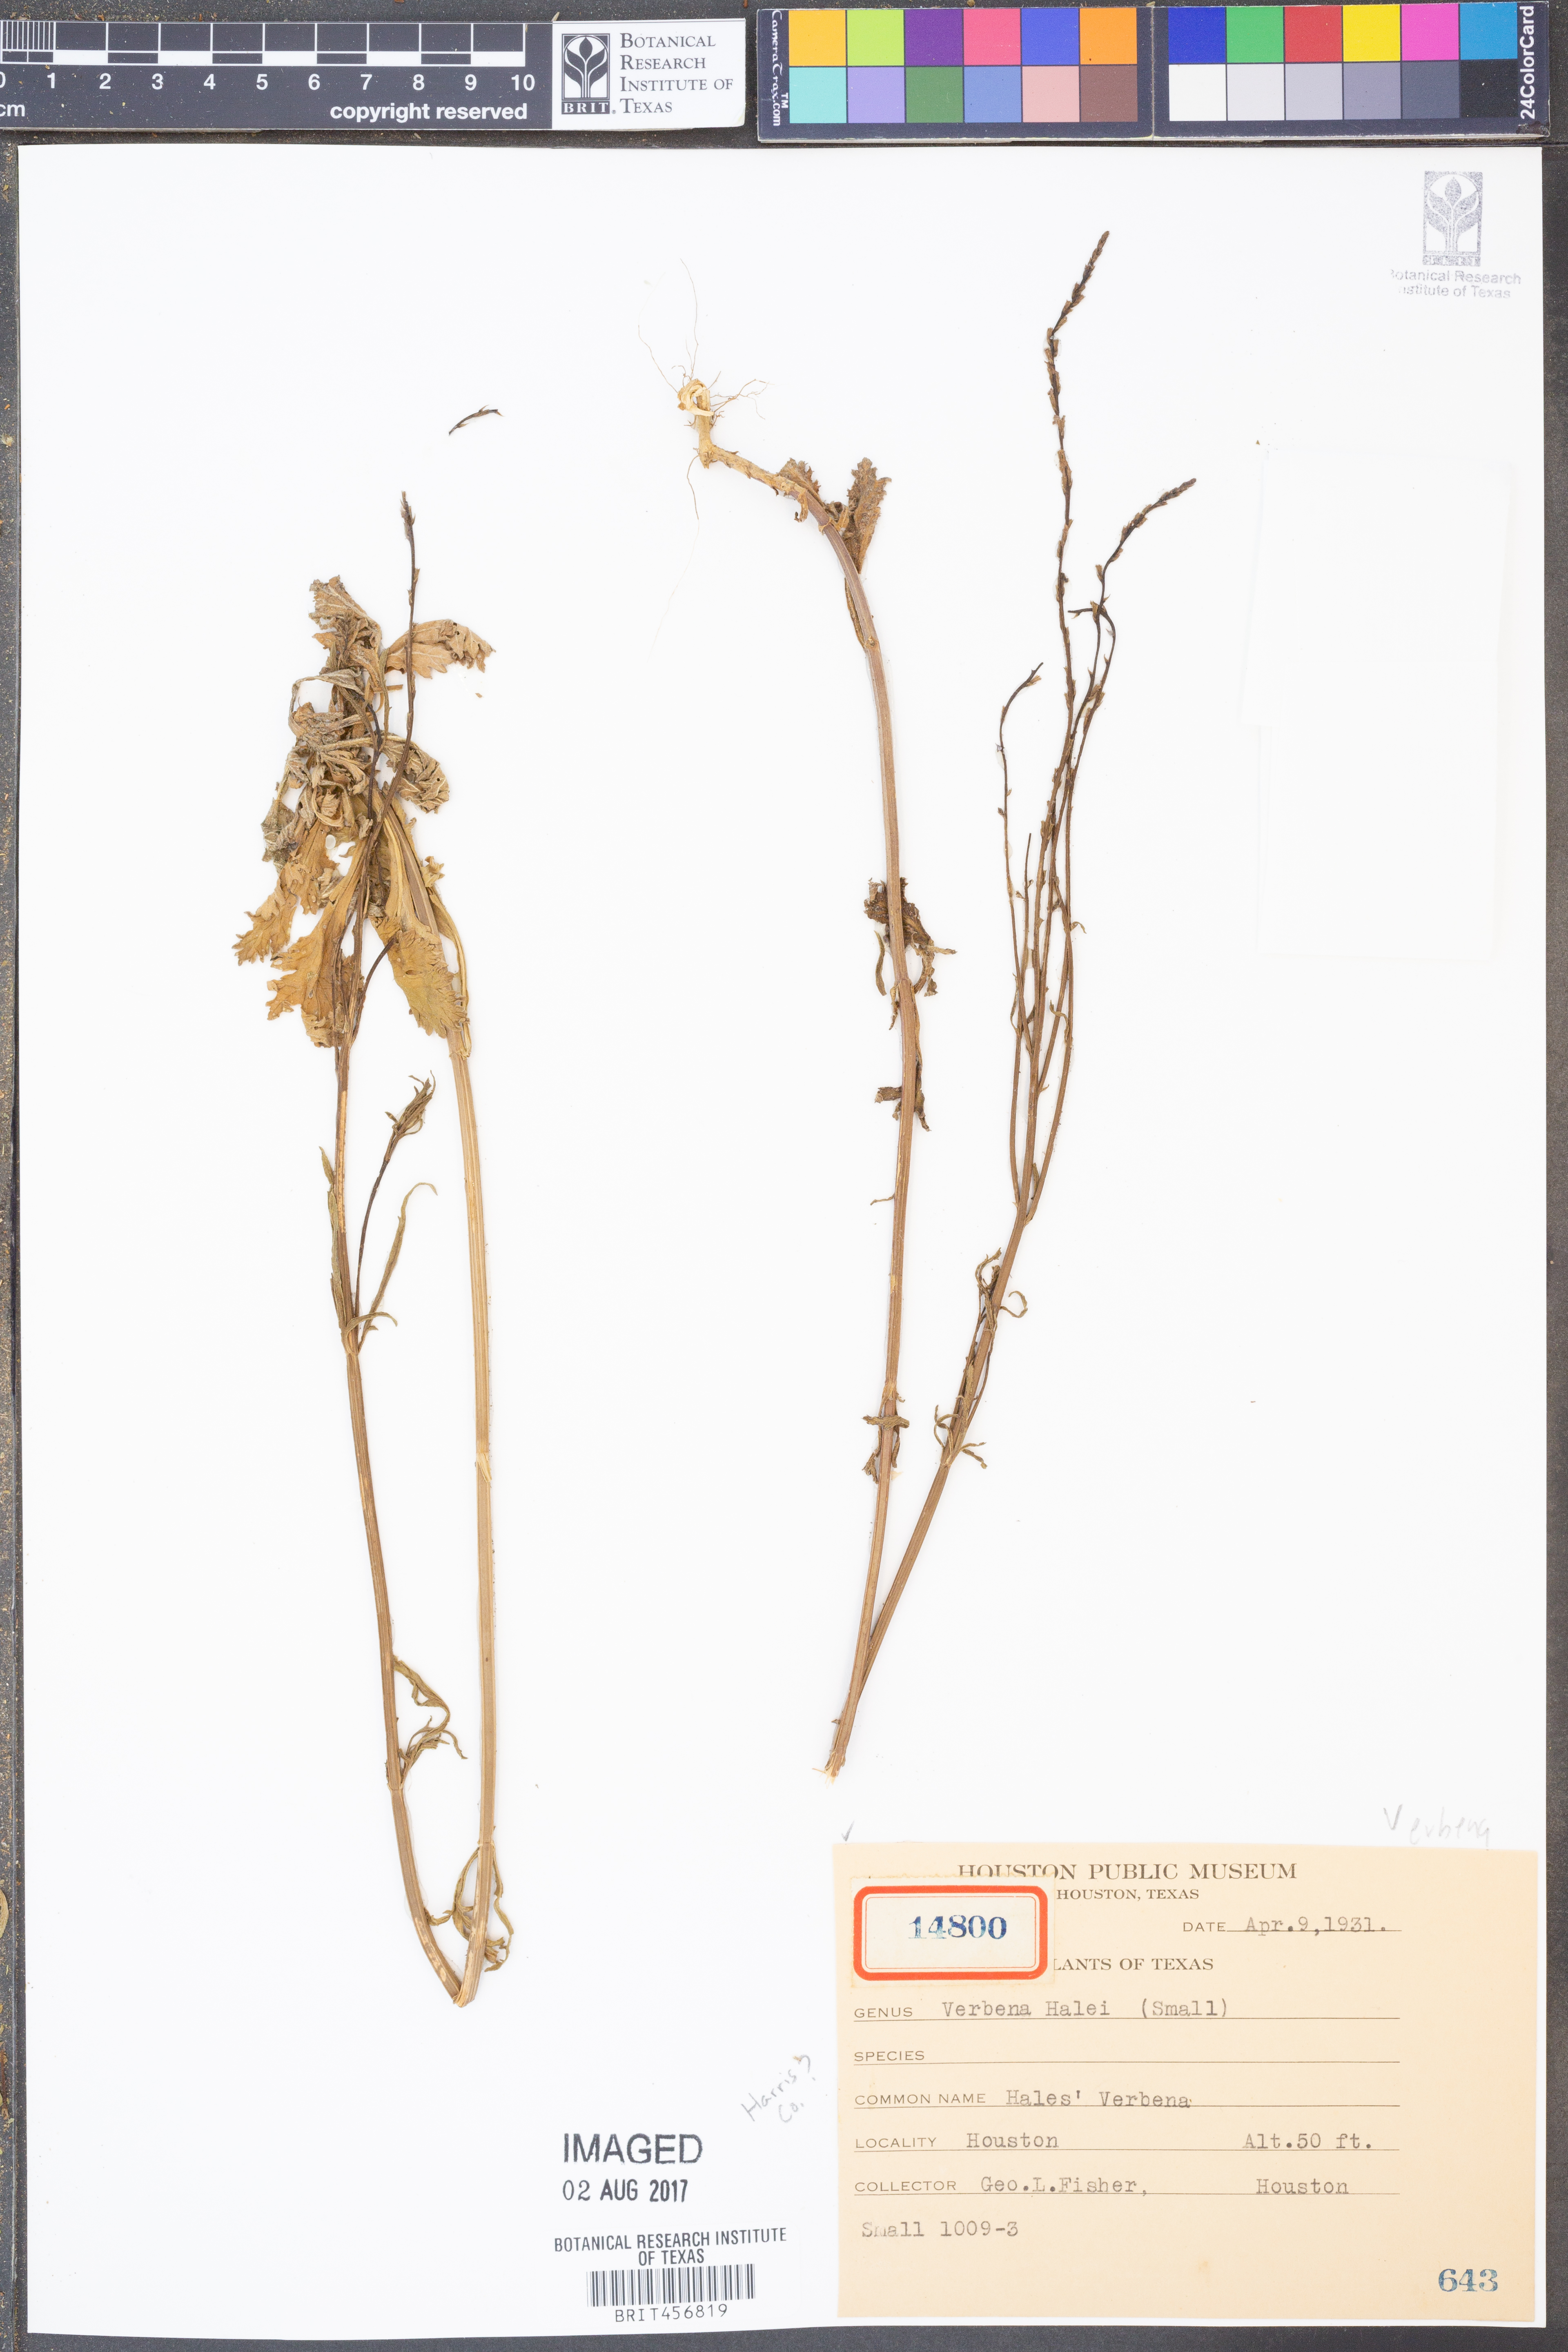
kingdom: Plantae
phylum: Tracheophyta
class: Magnoliopsida
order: Lamiales
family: Verbenaceae
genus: Verbena
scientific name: Verbena halei
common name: Texas vervain
